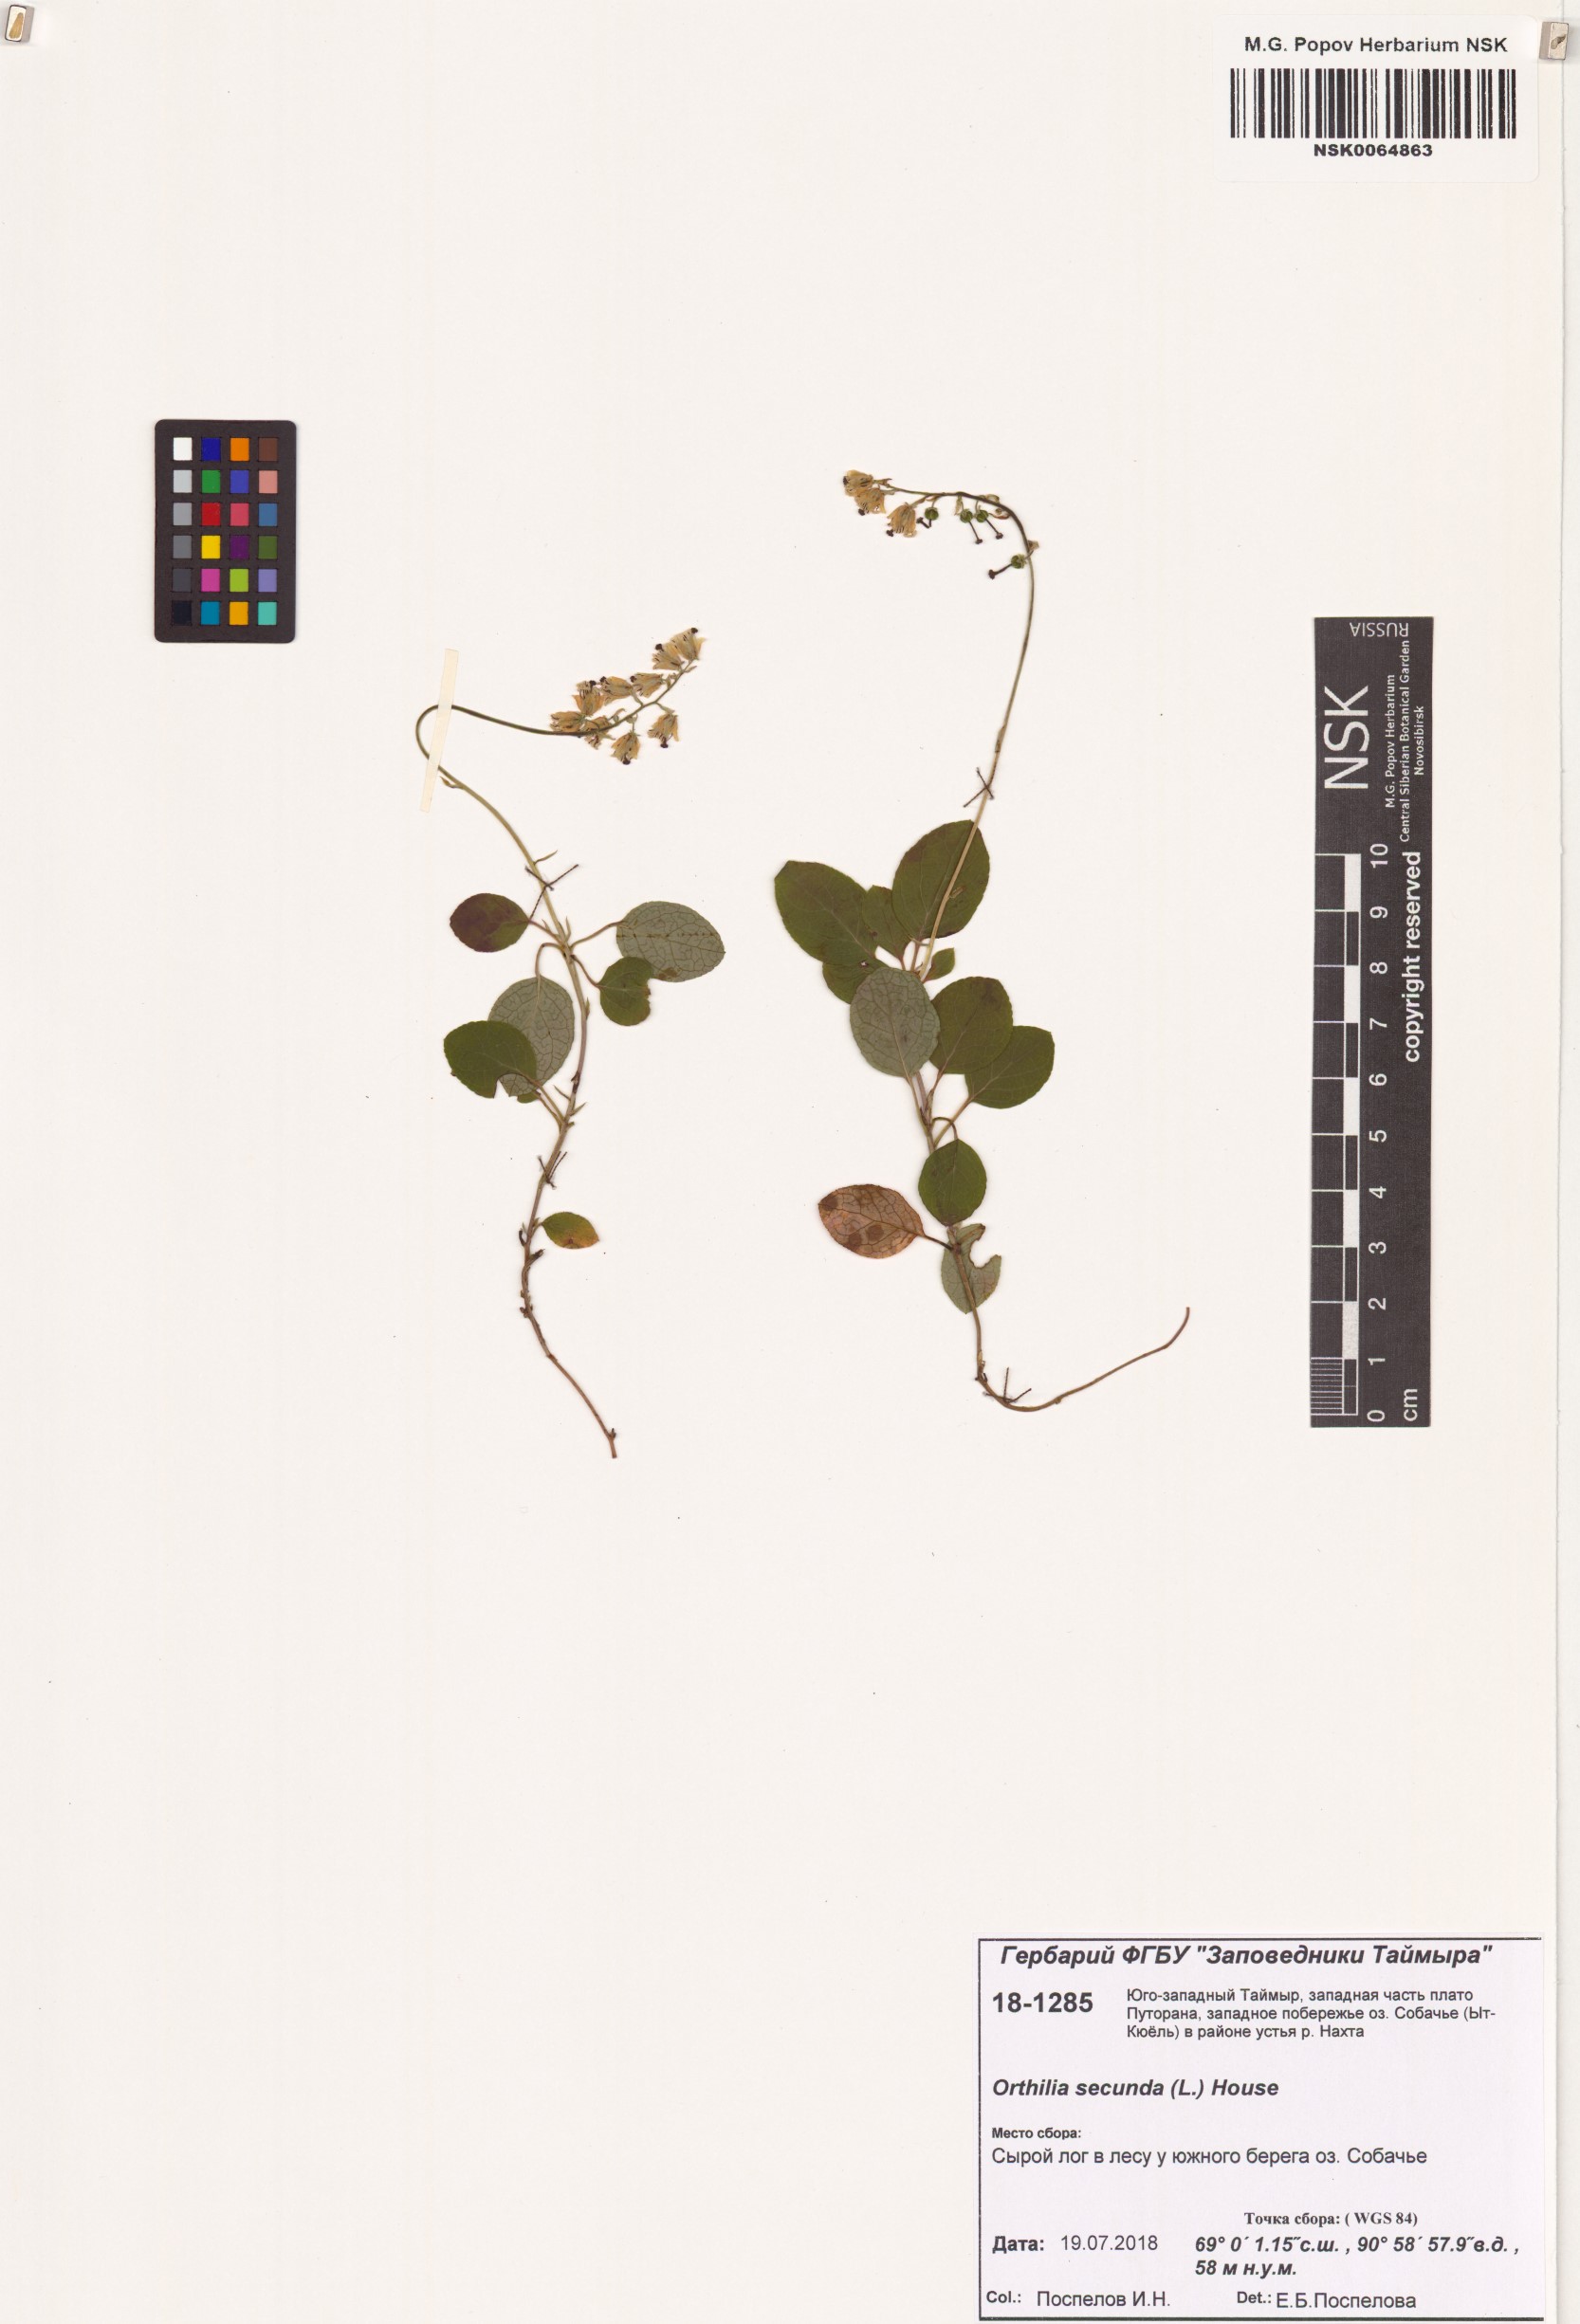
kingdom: Plantae
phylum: Tracheophyta
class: Magnoliopsida
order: Ericales
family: Ericaceae
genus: Orthilia
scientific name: Orthilia secunda
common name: One-sided orthilia
